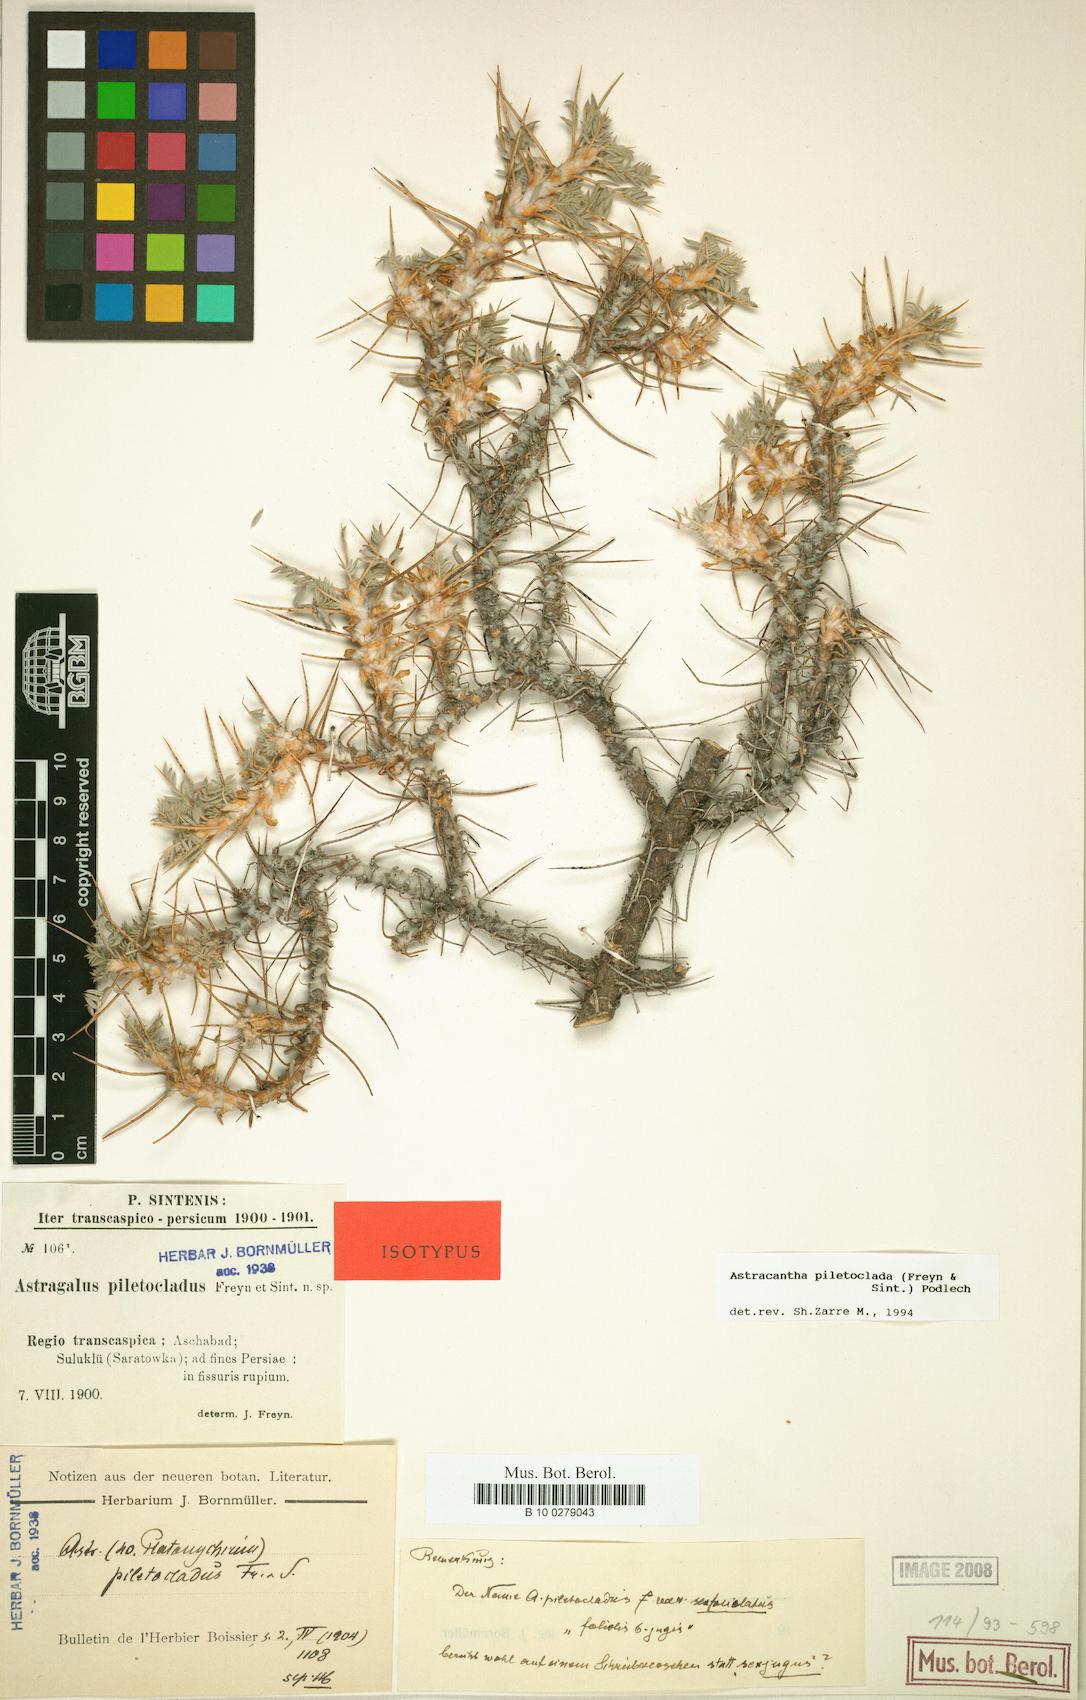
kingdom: Plantae
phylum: Tracheophyta
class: Magnoliopsida
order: Fabales
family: Fabaceae
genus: Astragalus
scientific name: Astragalus verus
